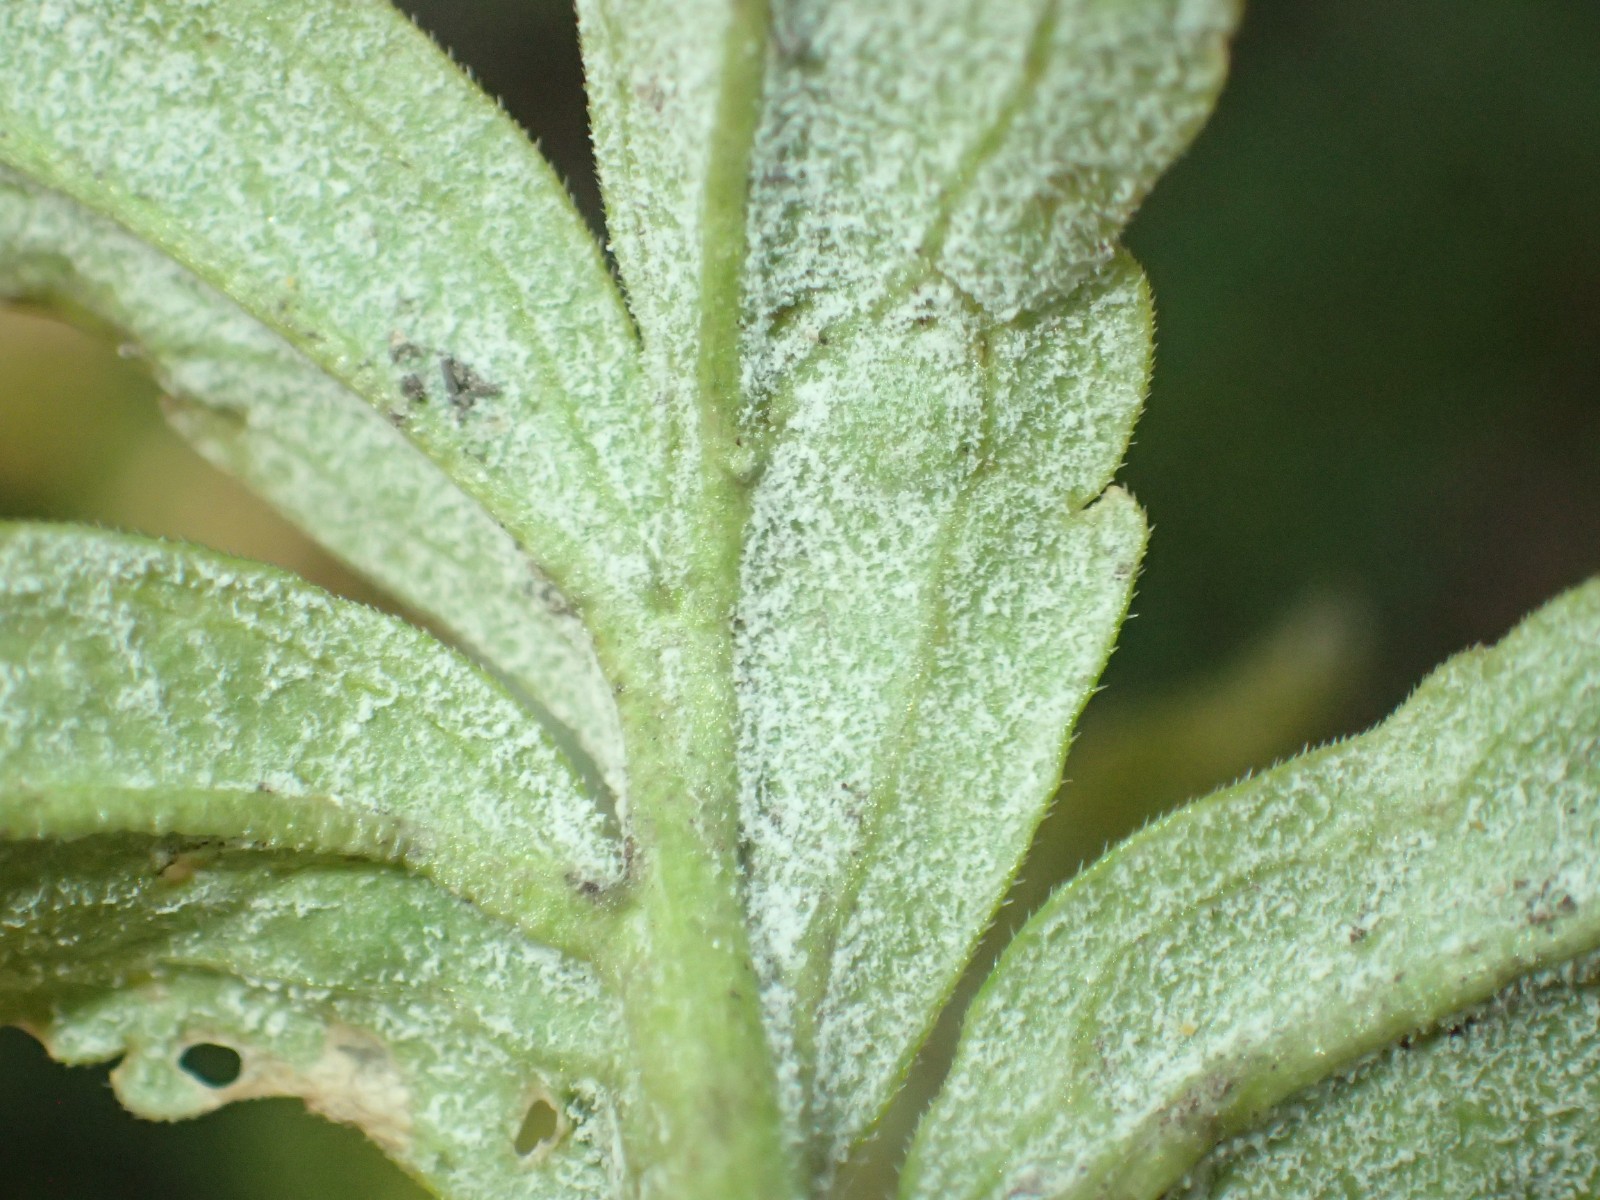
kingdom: Chromista
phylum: Oomycota
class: Peronosporea
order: Peronosporales
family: Peronosporaceae
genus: Hyaloperonospora
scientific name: Hyaloperonospora dentariae
